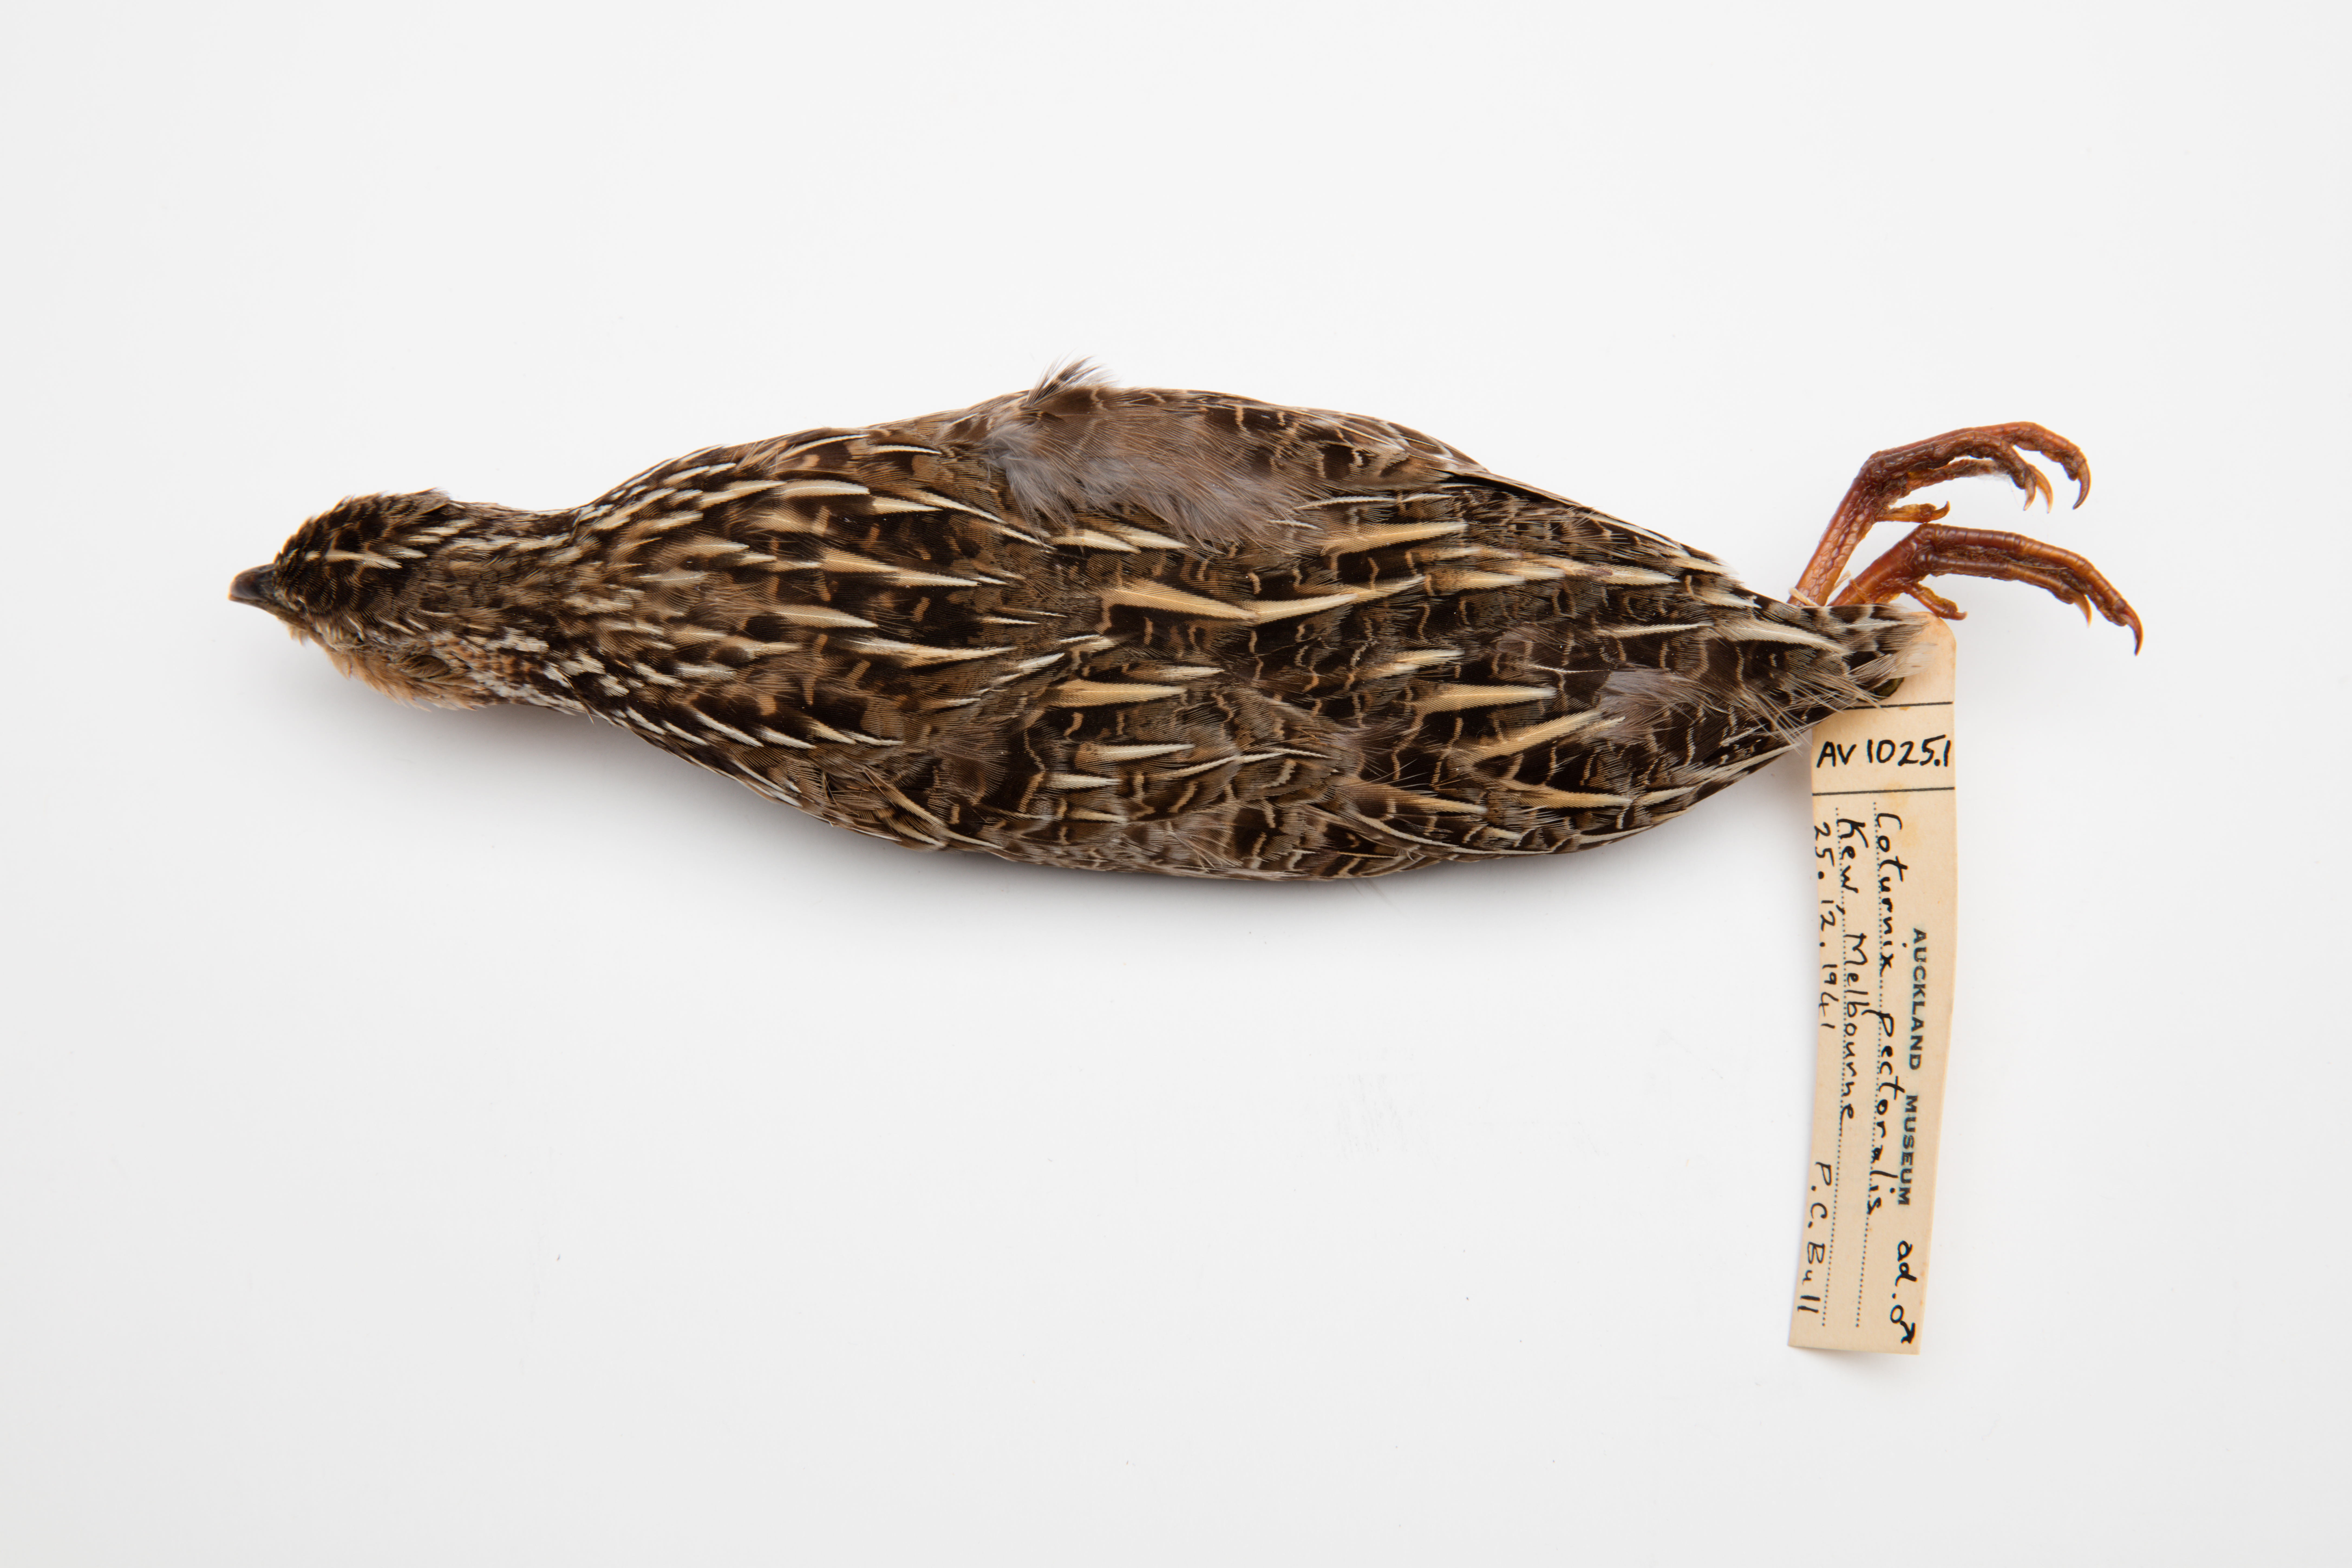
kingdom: Animalia
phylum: Chordata
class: Aves
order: Galliformes
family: Phasianidae
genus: Coturnix
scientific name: Coturnix pectoralis
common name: Stubble quail
